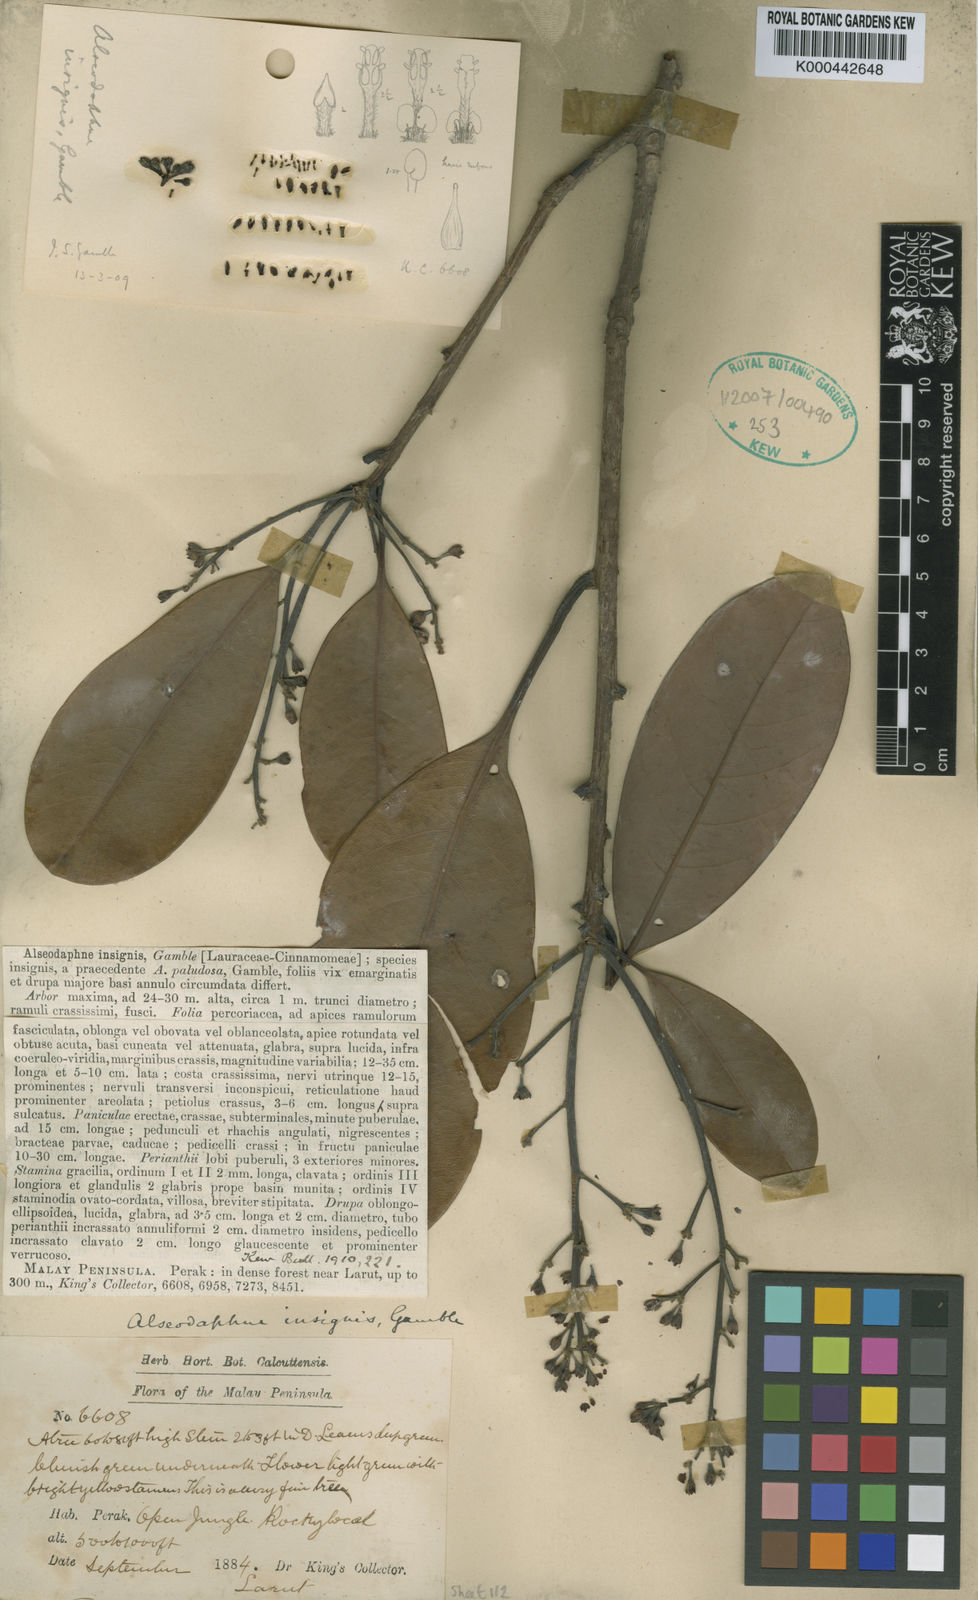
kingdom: Plantae
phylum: Tracheophyta
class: Magnoliopsida
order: Laurales
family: Lauraceae
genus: Alseodaphne
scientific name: Alseodaphne insignis
